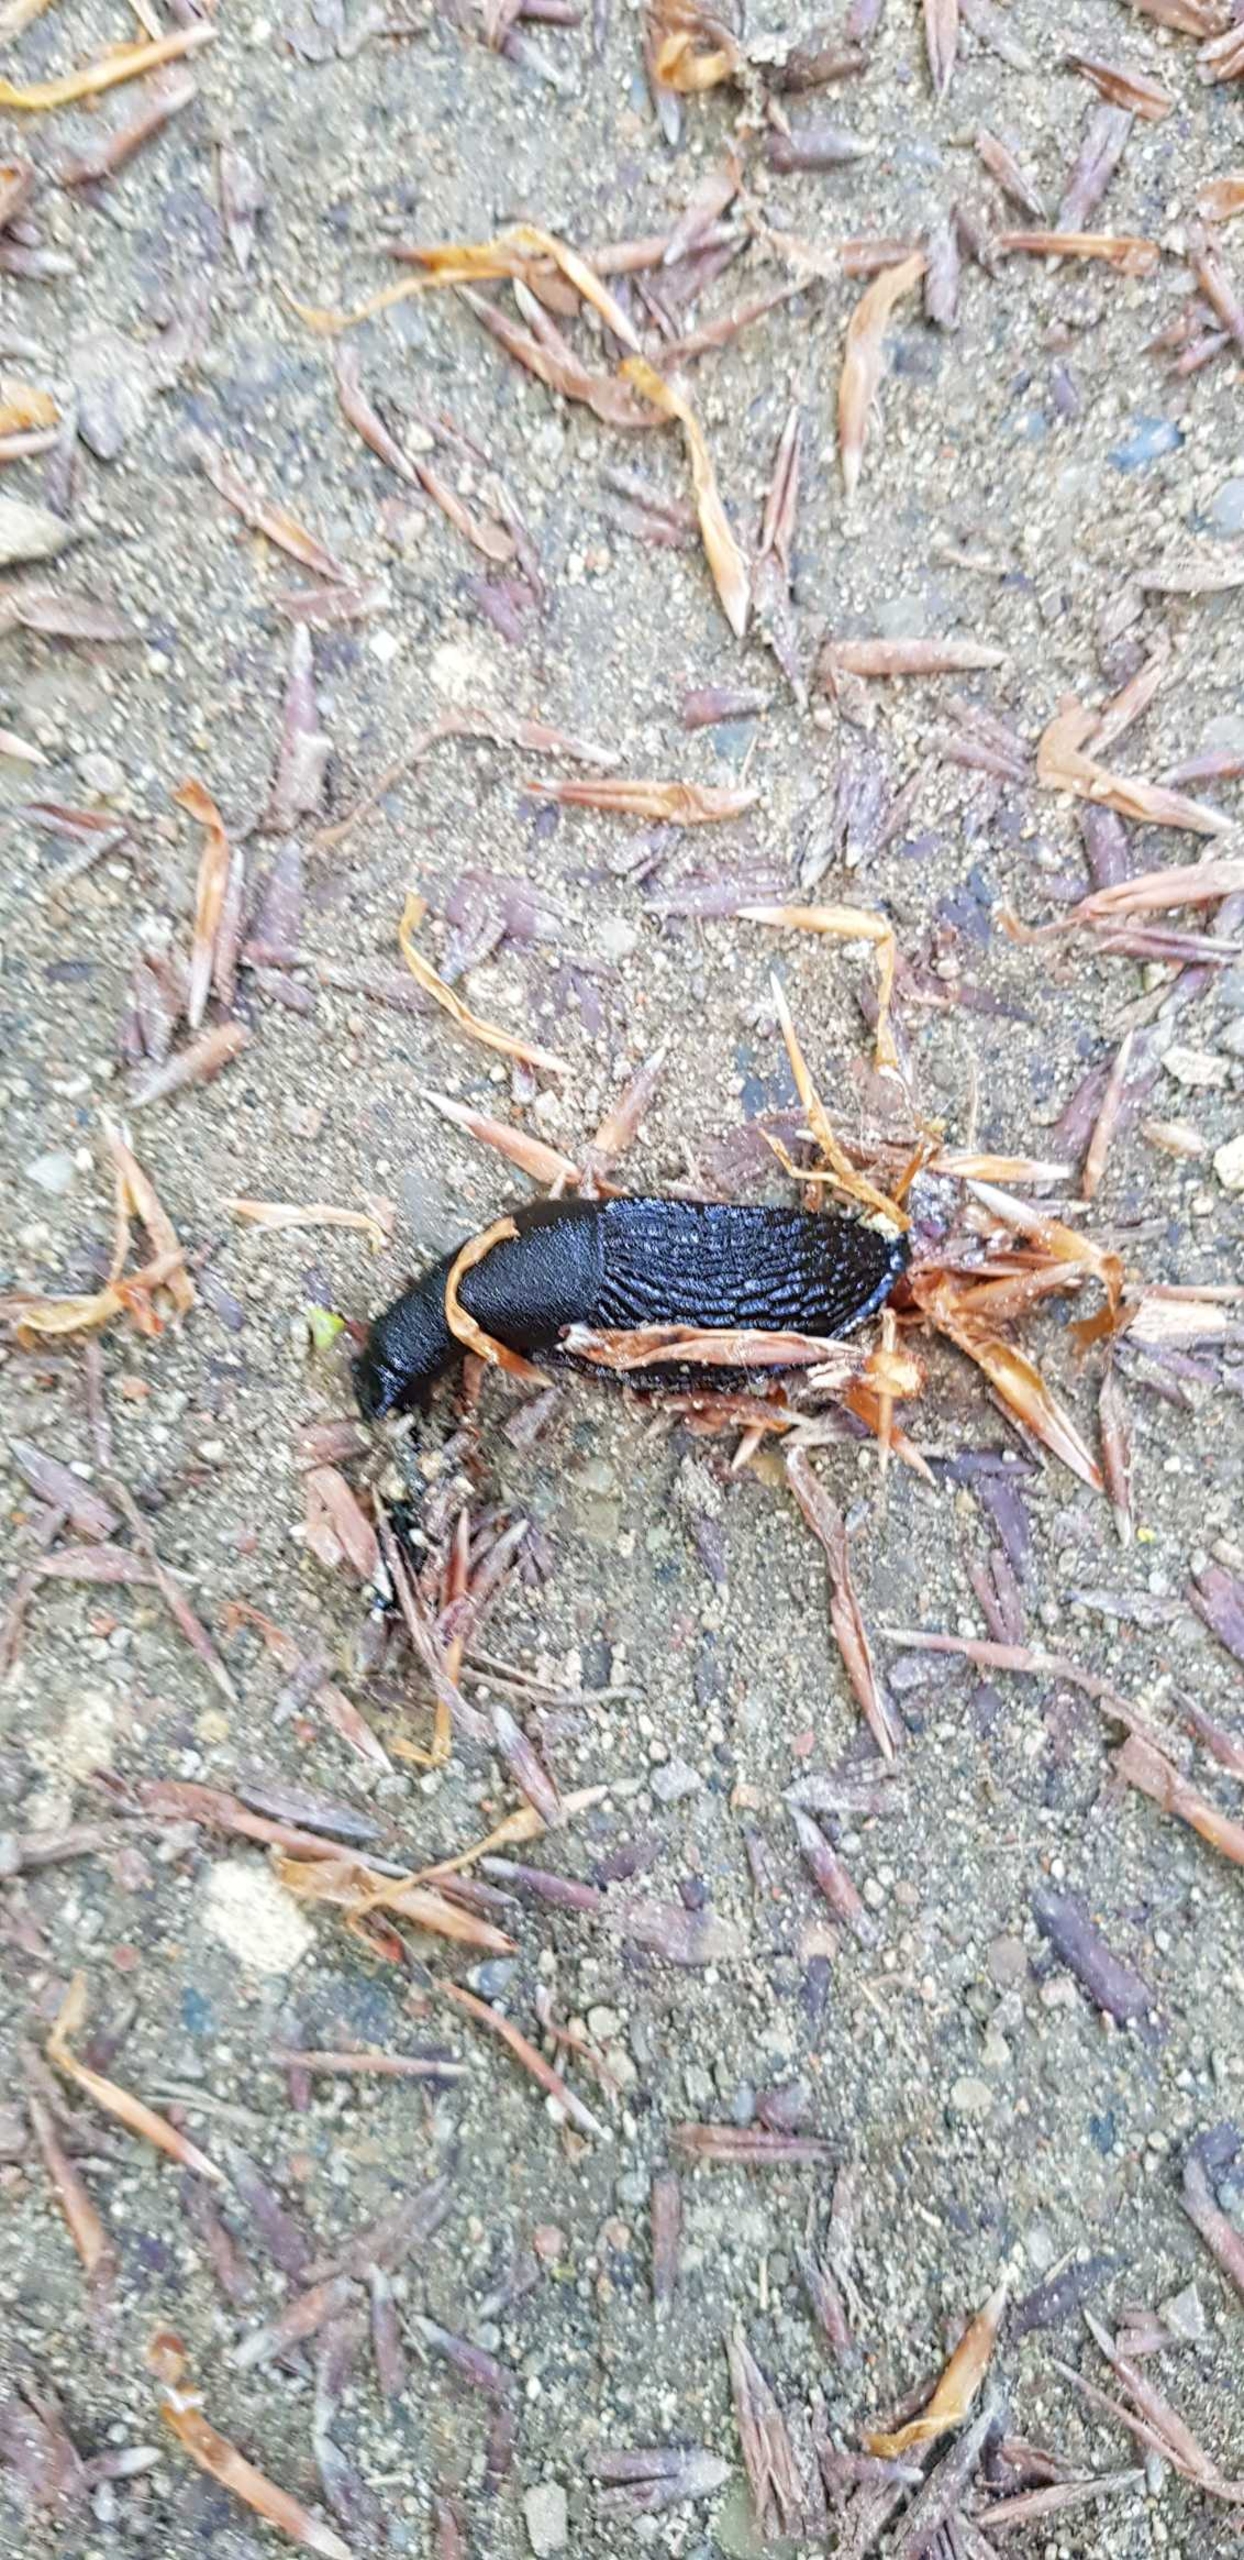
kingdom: Animalia
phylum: Mollusca
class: Gastropoda
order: Stylommatophora
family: Arionidae
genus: Arion
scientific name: Arion ater
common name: Sort skovsnegl
